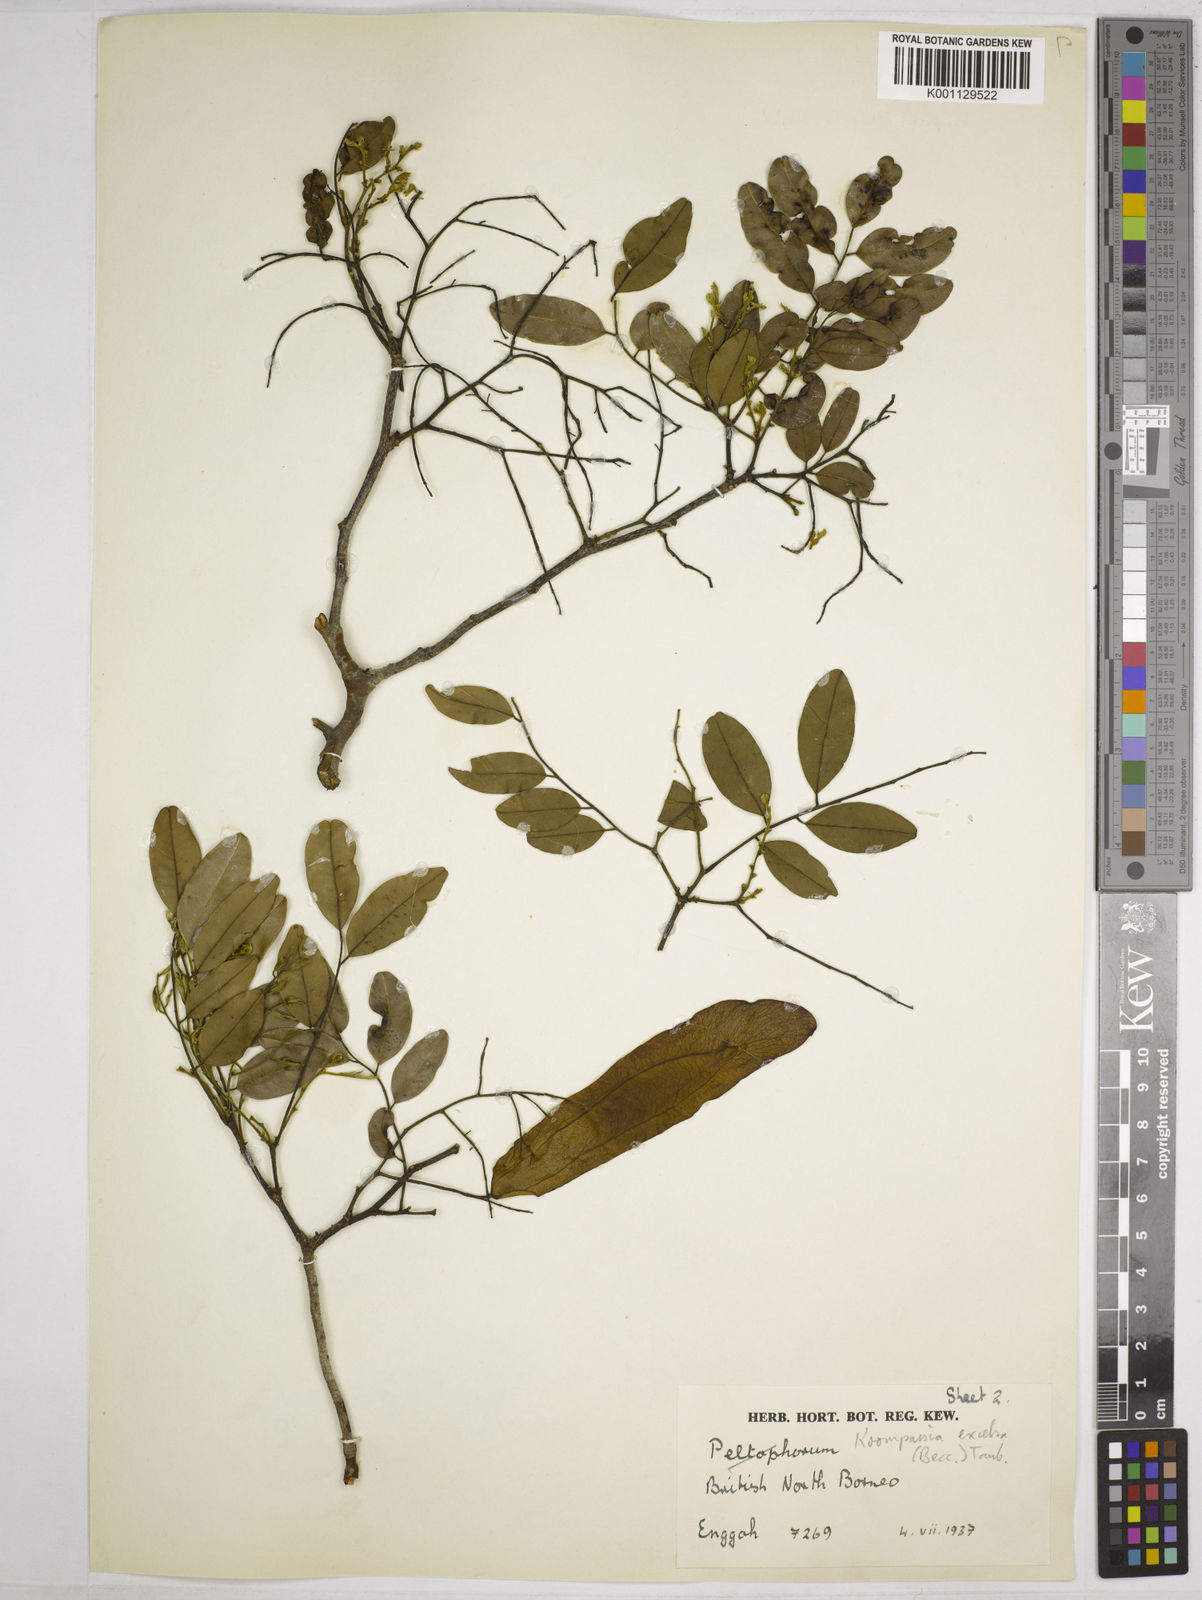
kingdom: Plantae
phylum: Tracheophyta
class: Magnoliopsida
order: Fabales
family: Fabaceae
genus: Koompassia
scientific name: Koompassia excelsa
